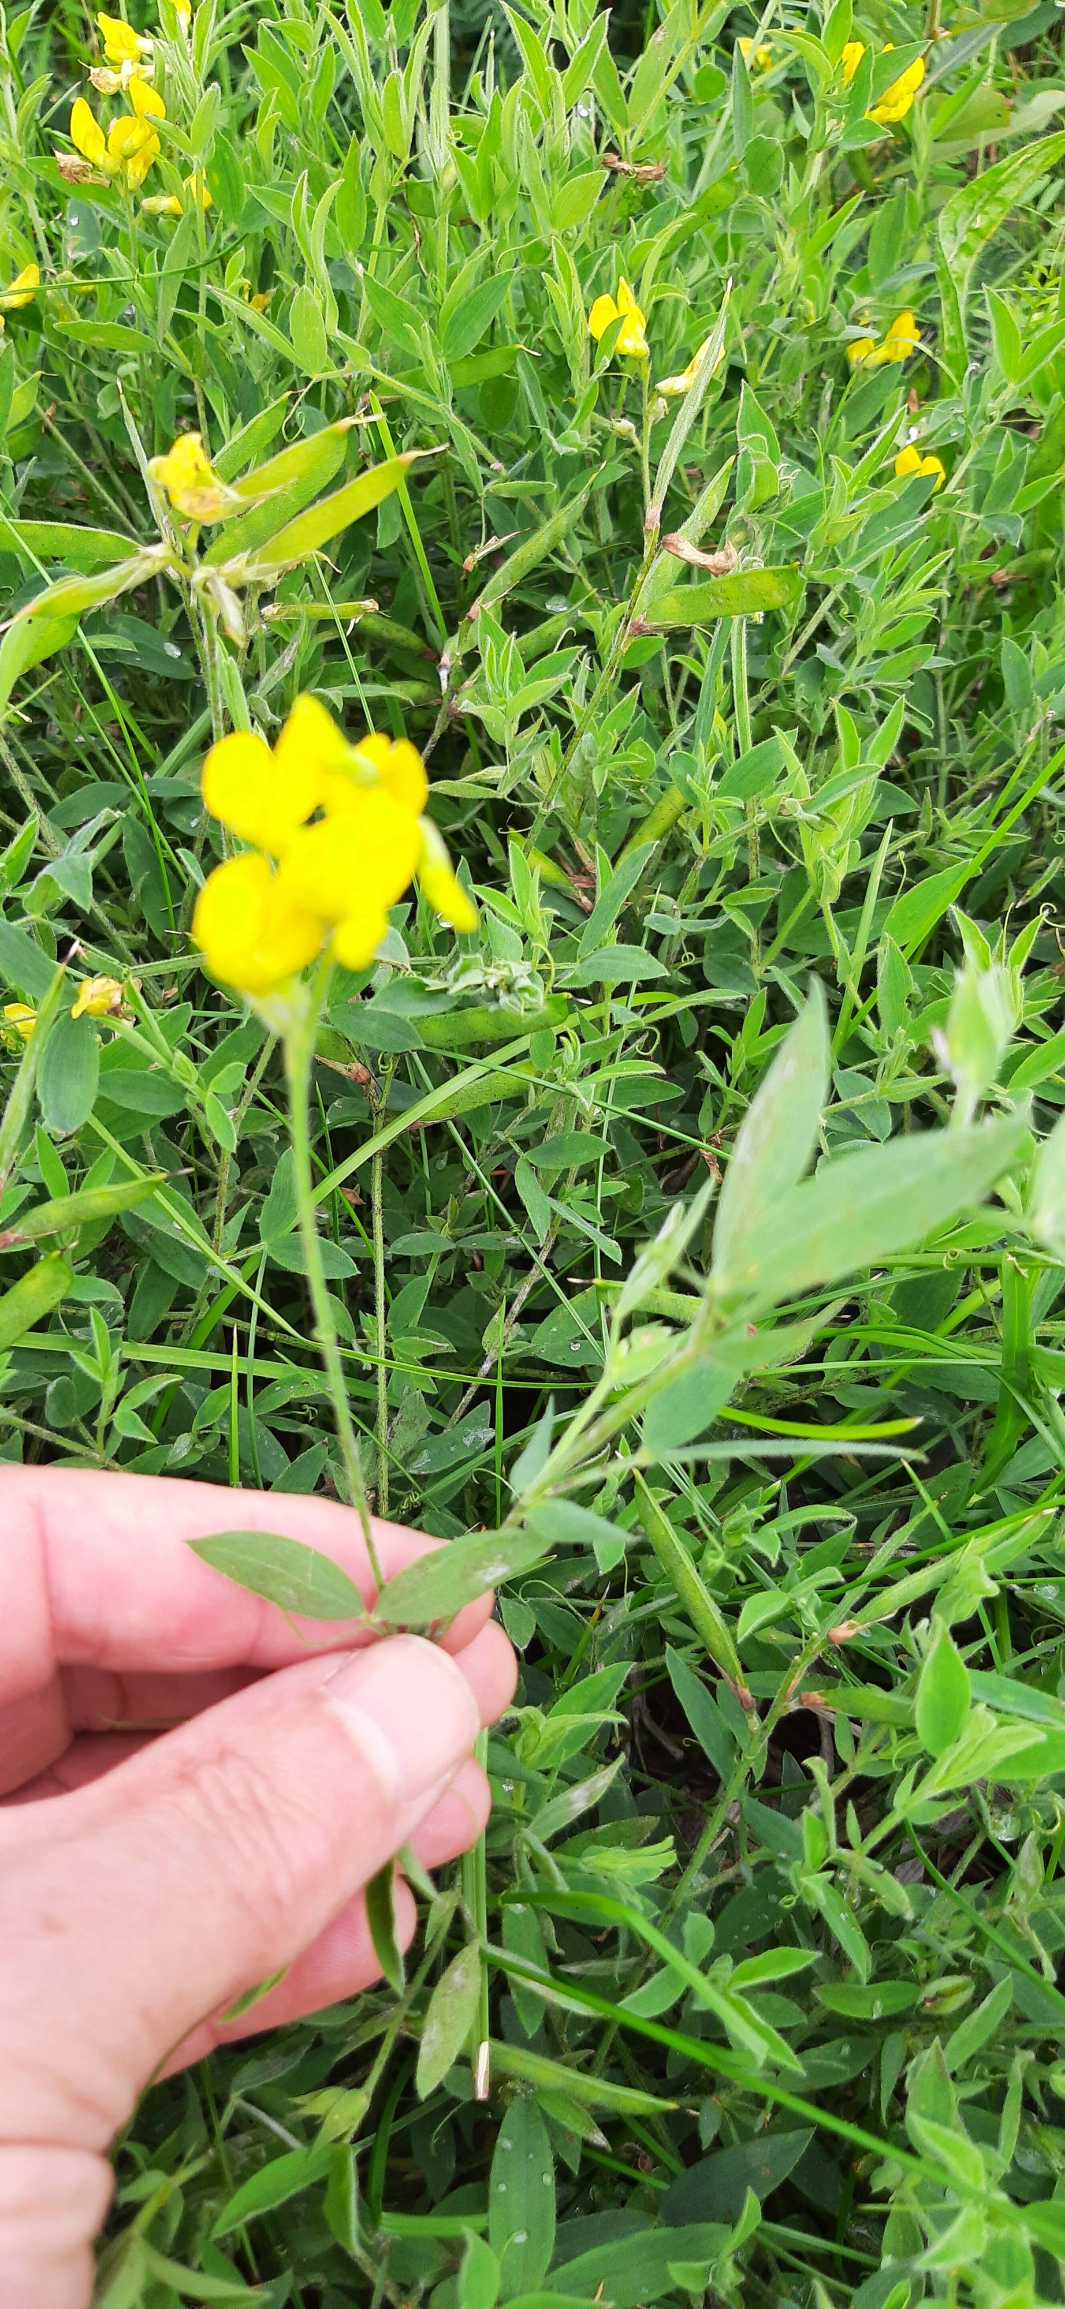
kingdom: Plantae
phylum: Tracheophyta
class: Magnoliopsida
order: Fabales
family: Fabaceae
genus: Lathyrus
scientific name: Lathyrus pratensis
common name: Gul fladbælg
